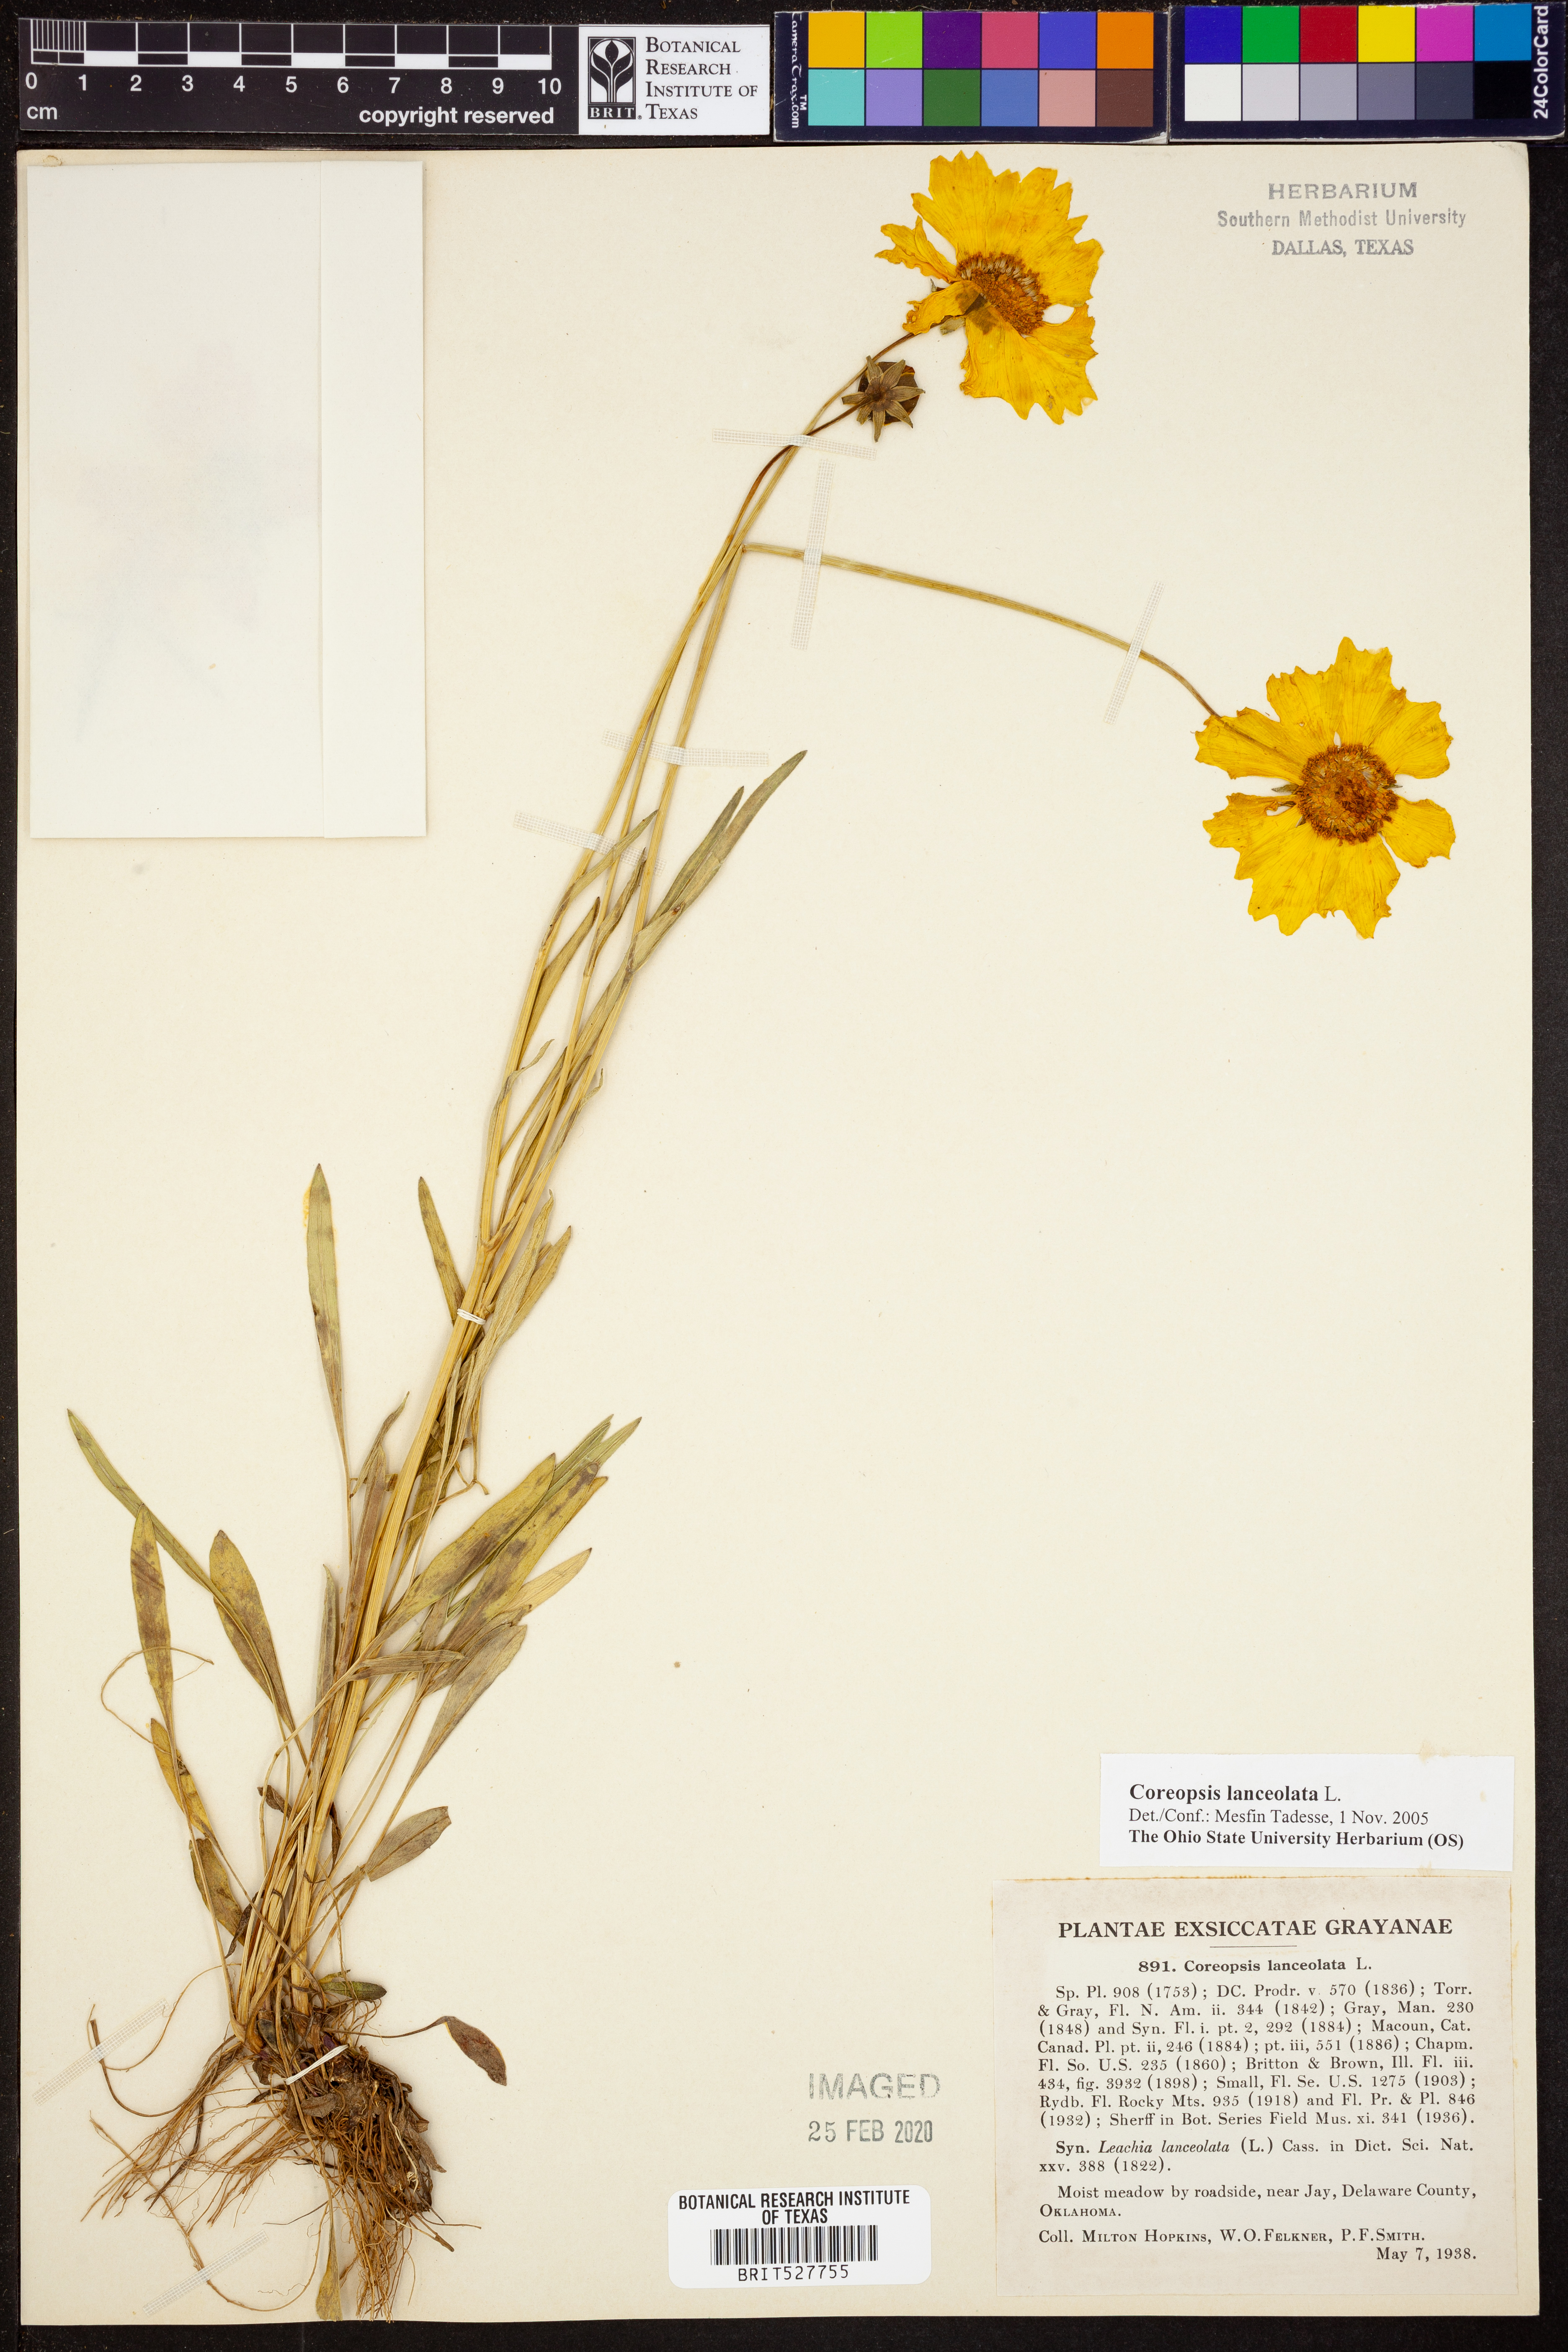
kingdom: Plantae
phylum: Tracheophyta
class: Magnoliopsida
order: Asterales
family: Asteraceae
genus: Coreopsis
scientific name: Coreopsis lanceolata
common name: Garden coreopsis
